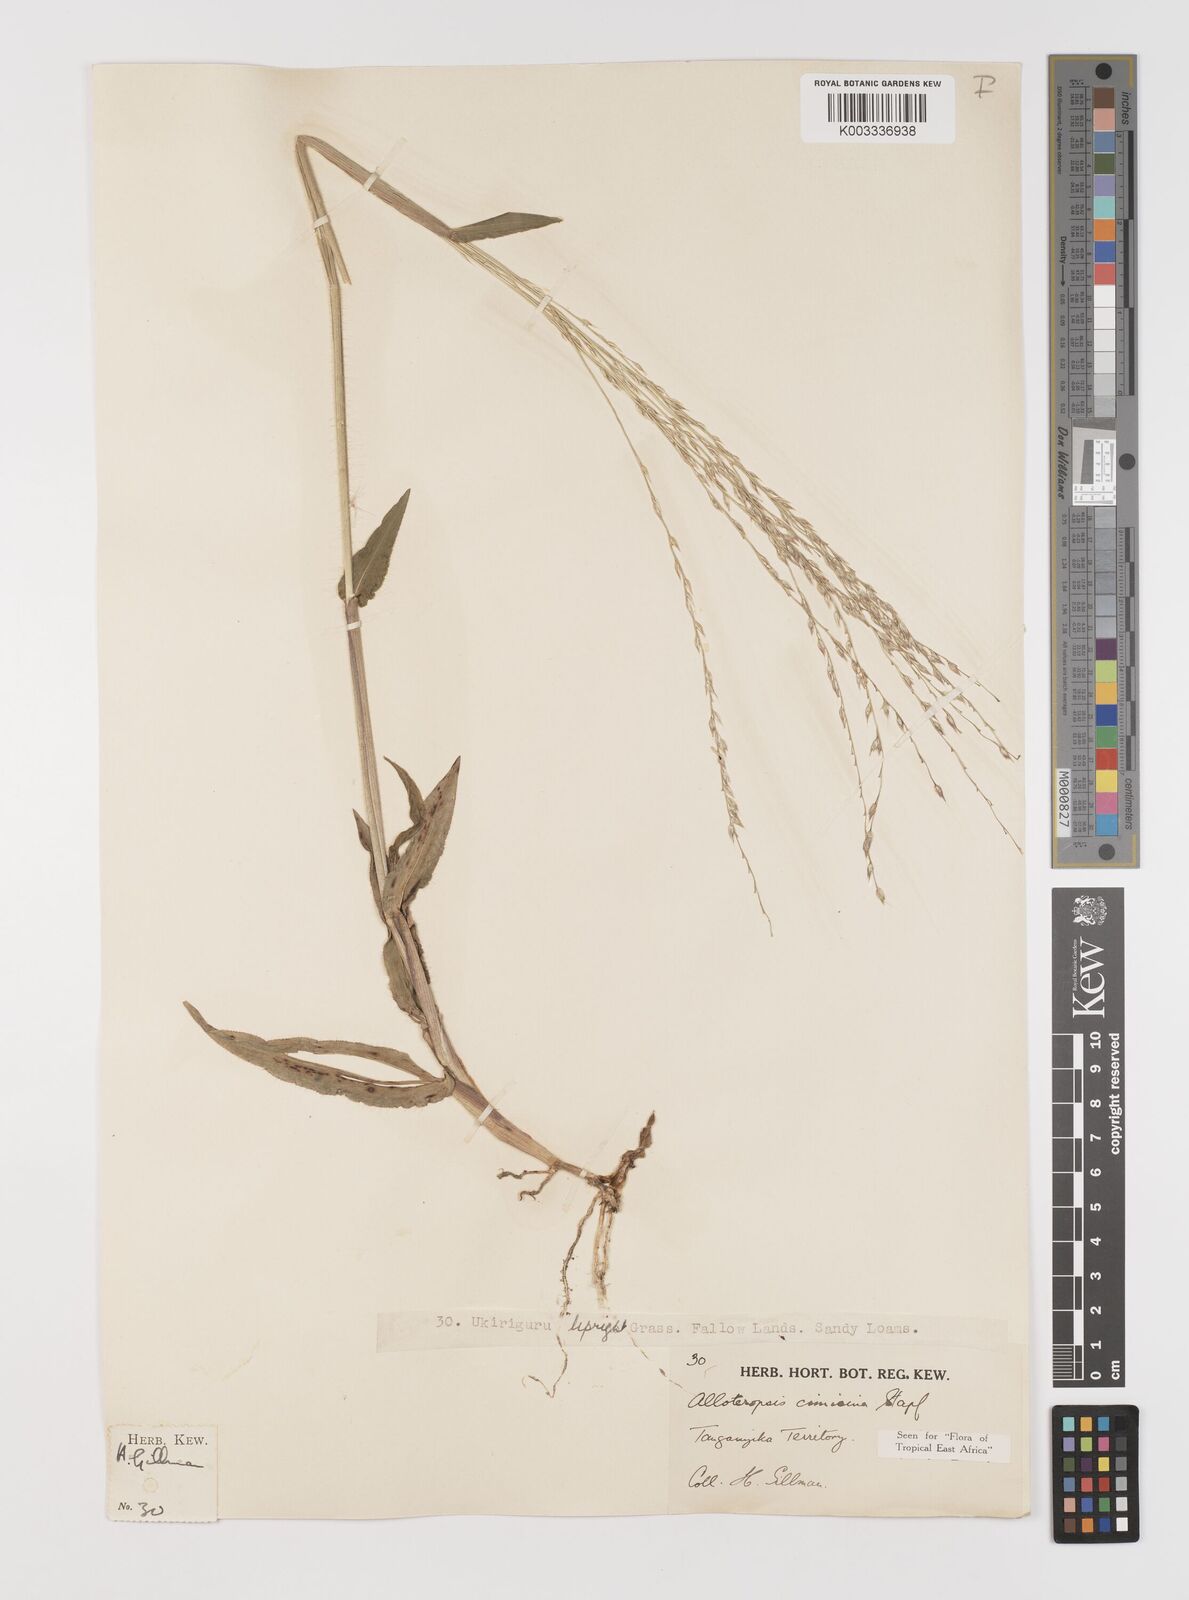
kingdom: Plantae
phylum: Tracheophyta
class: Liliopsida
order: Poales
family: Poaceae
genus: Alloteropsis
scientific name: Alloteropsis cimicina
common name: Summergrass
